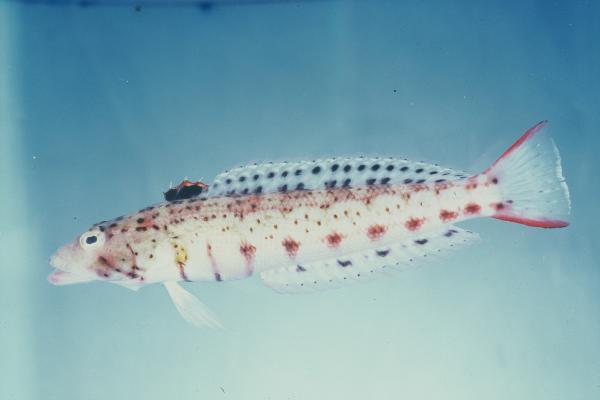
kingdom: Animalia
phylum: Chordata
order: Perciformes
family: Pinguipedidae
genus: Parapercis
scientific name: Parapercis punctulata
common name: Spotted sandperch
